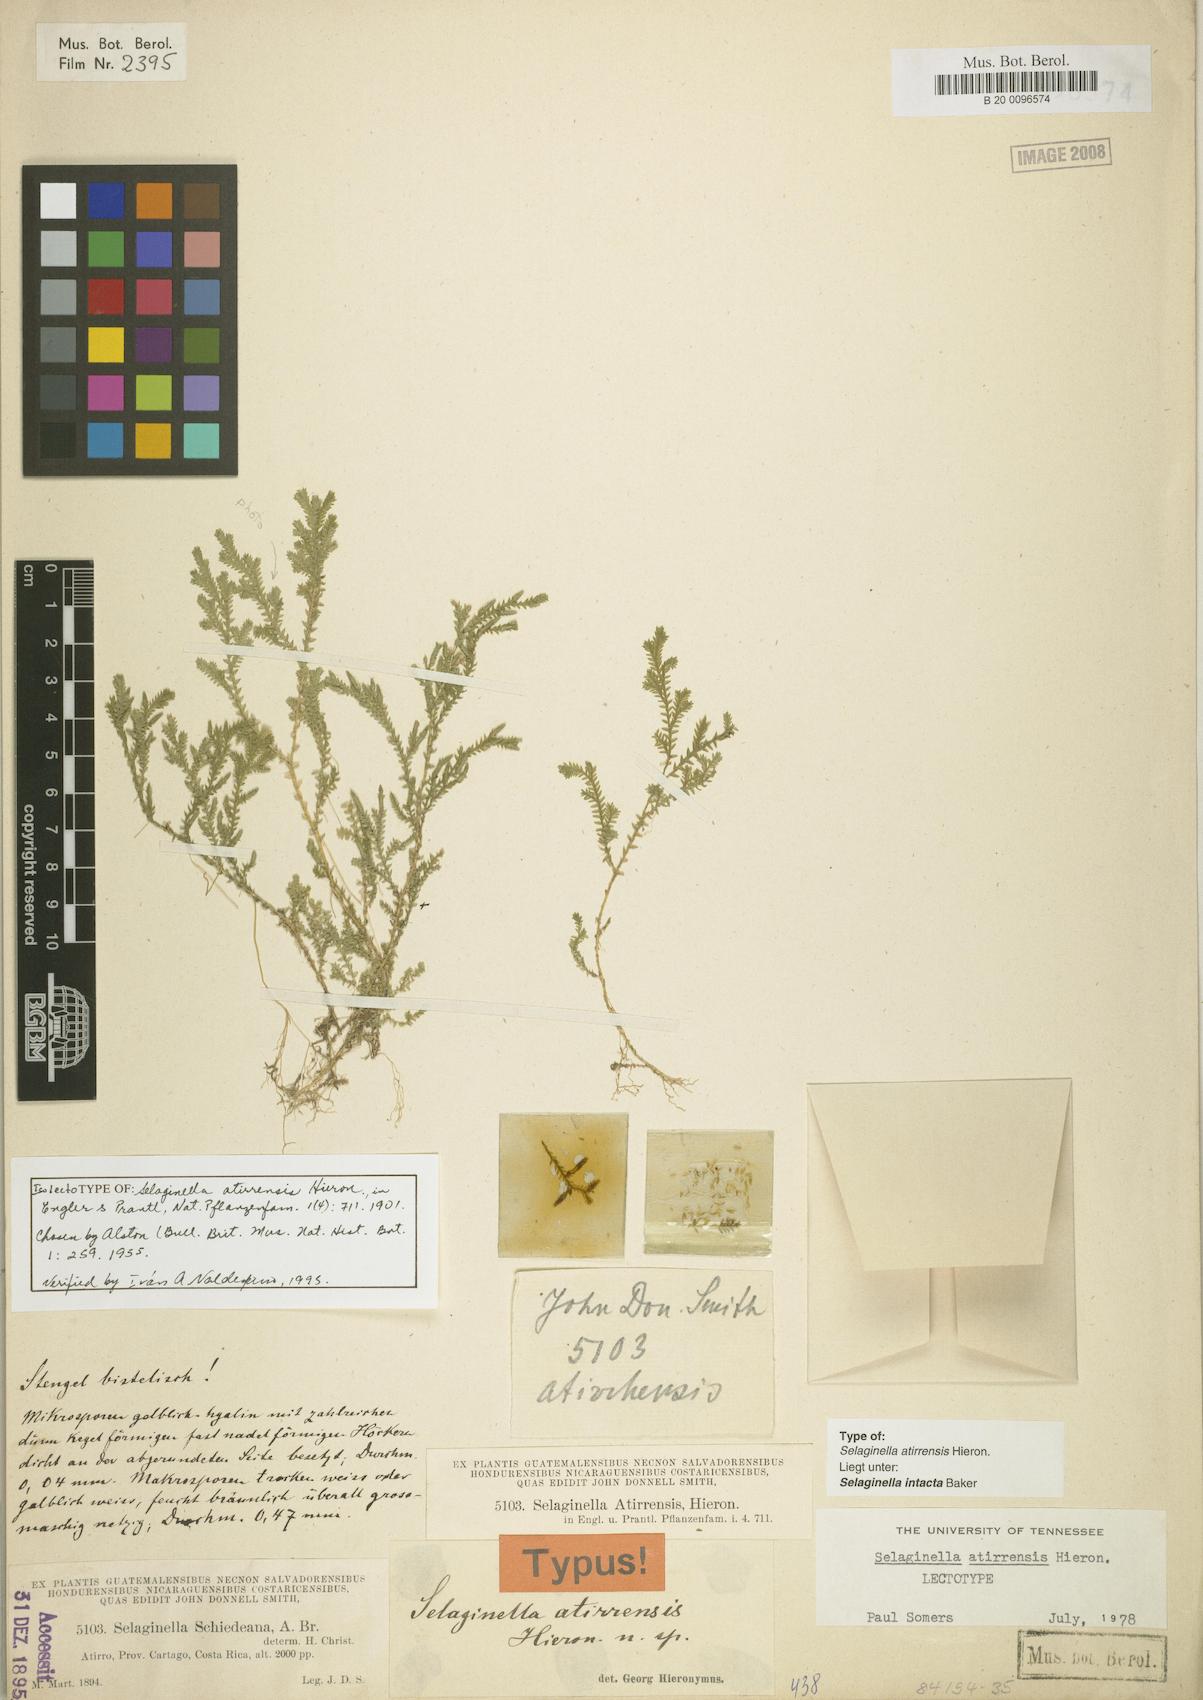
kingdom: Plantae
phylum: Tracheophyta
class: Lycopodiopsida
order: Selaginellales
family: Selaginellaceae
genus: Selaginella
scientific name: Selaginella lingulata
